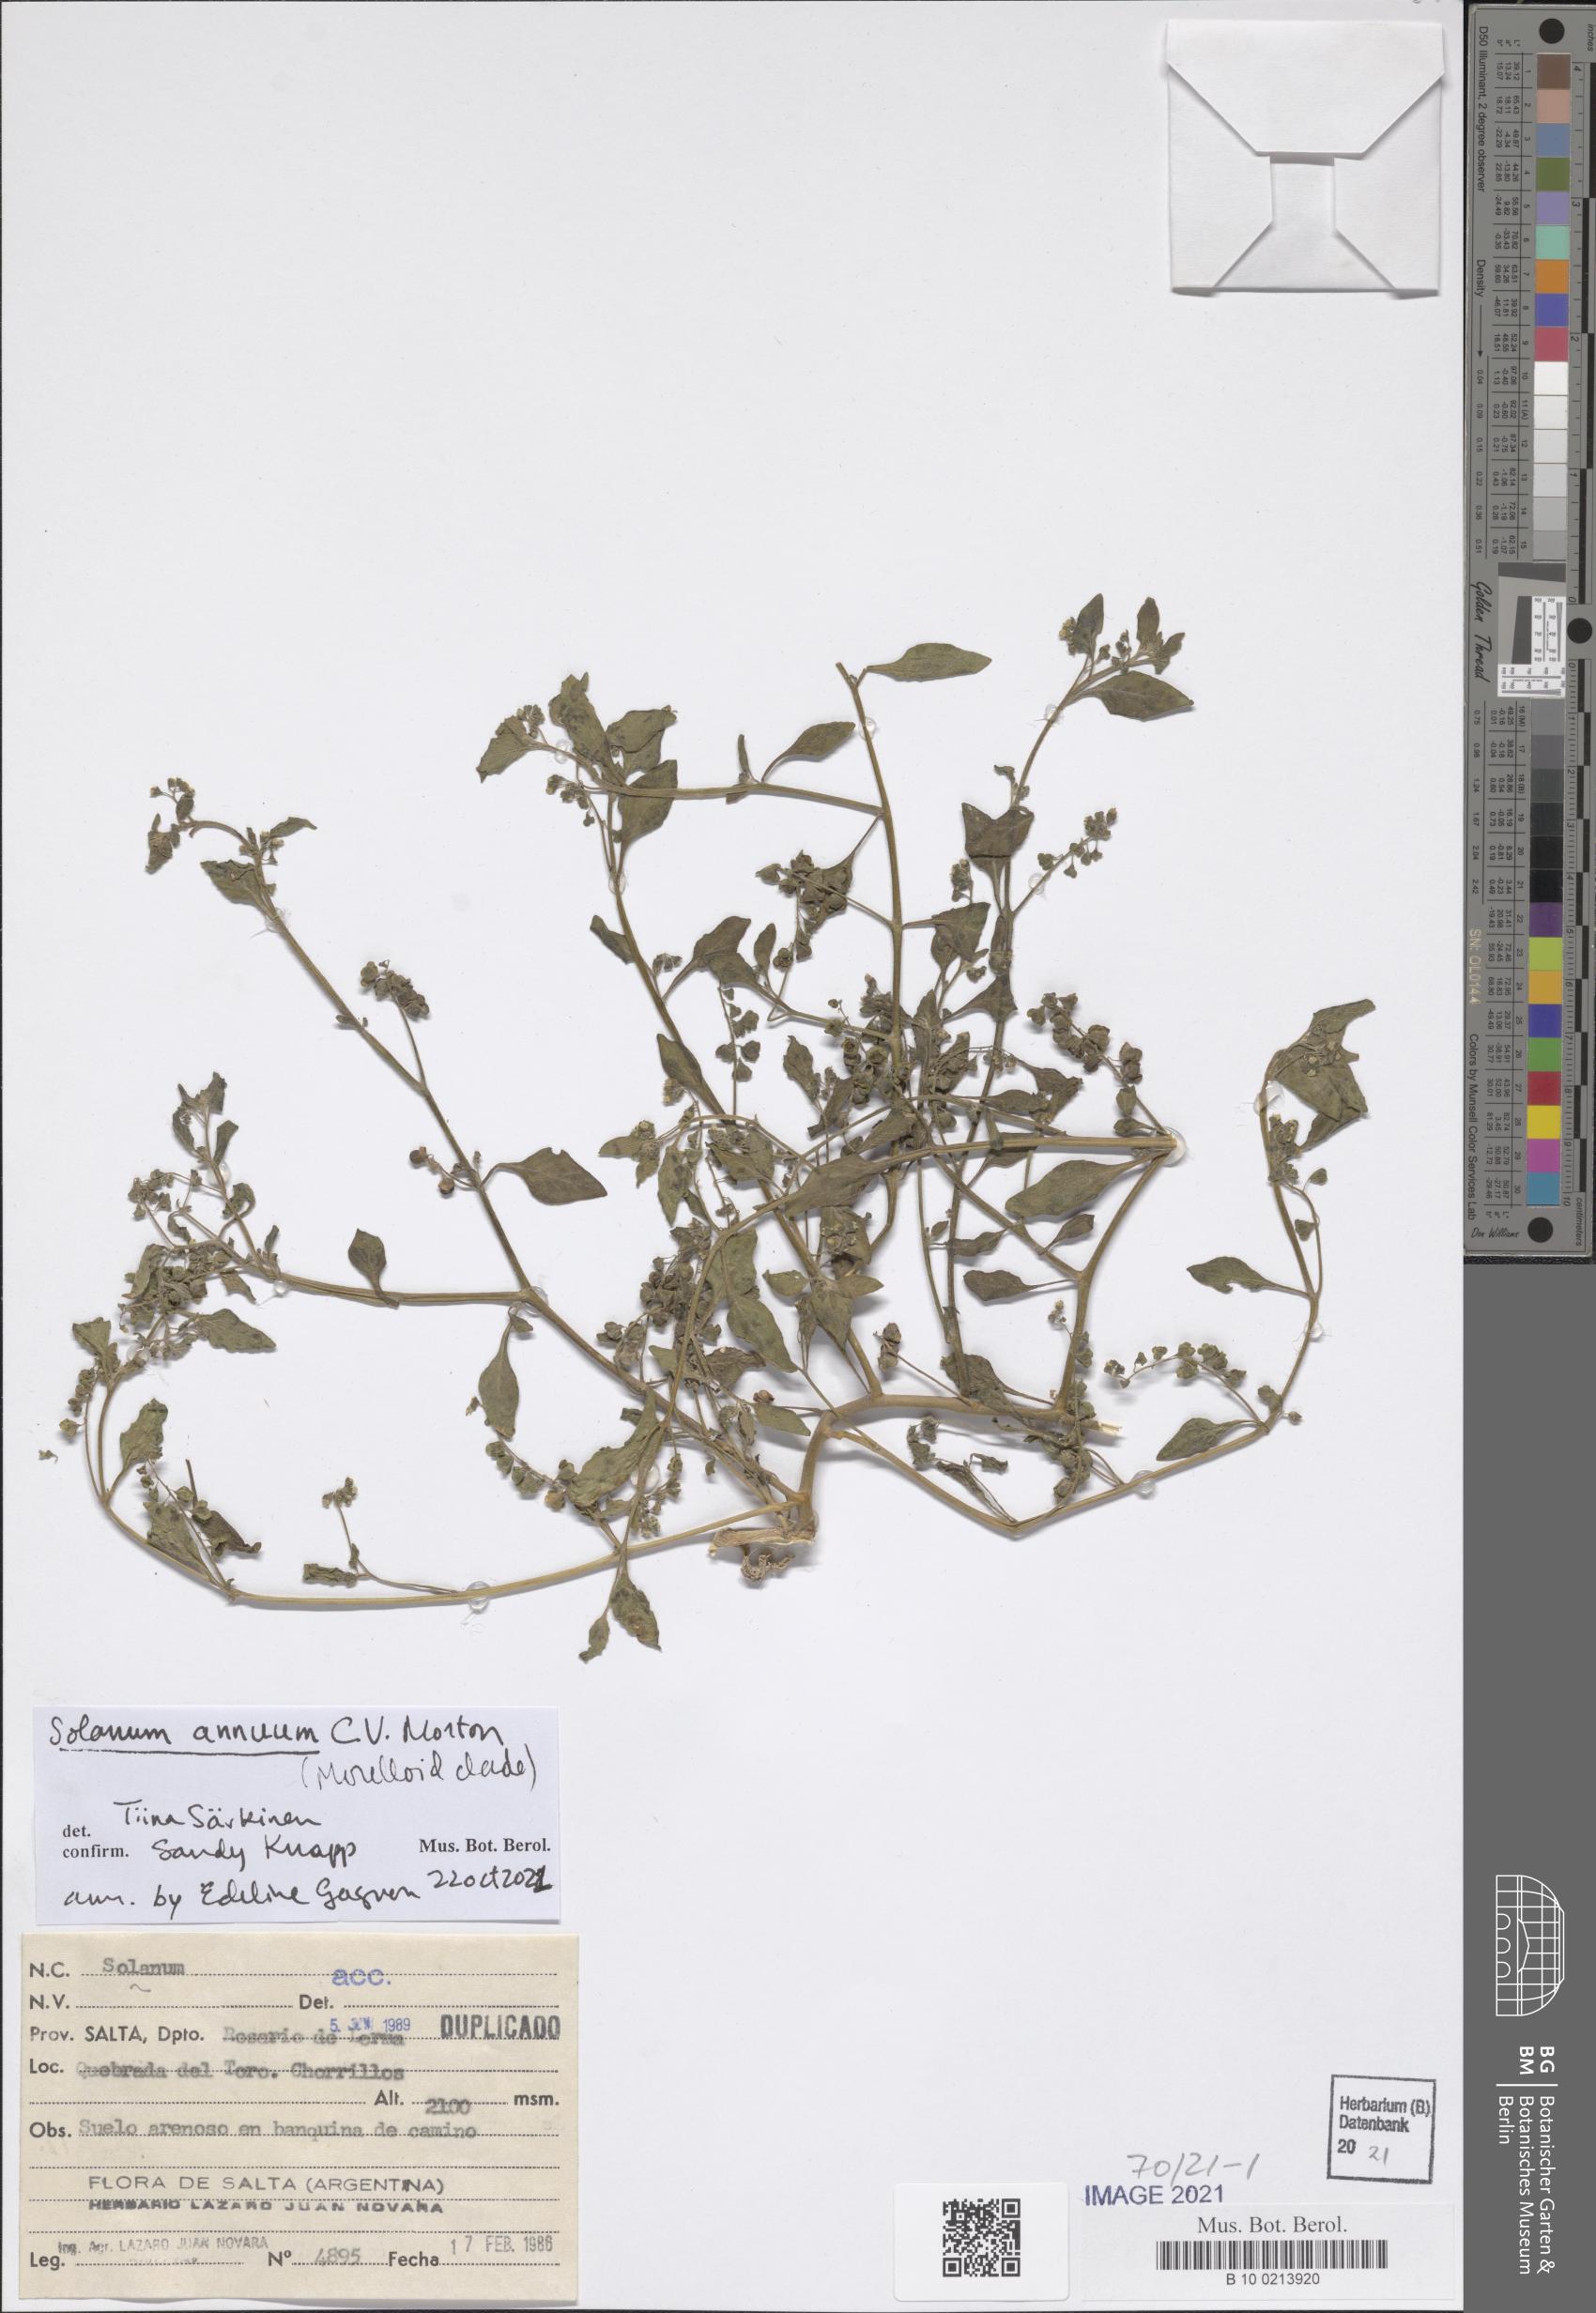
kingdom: Plantae
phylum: Tracheophyta
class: Magnoliopsida
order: Solanales
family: Solanaceae
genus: Solanum
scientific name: Solanum annuum
